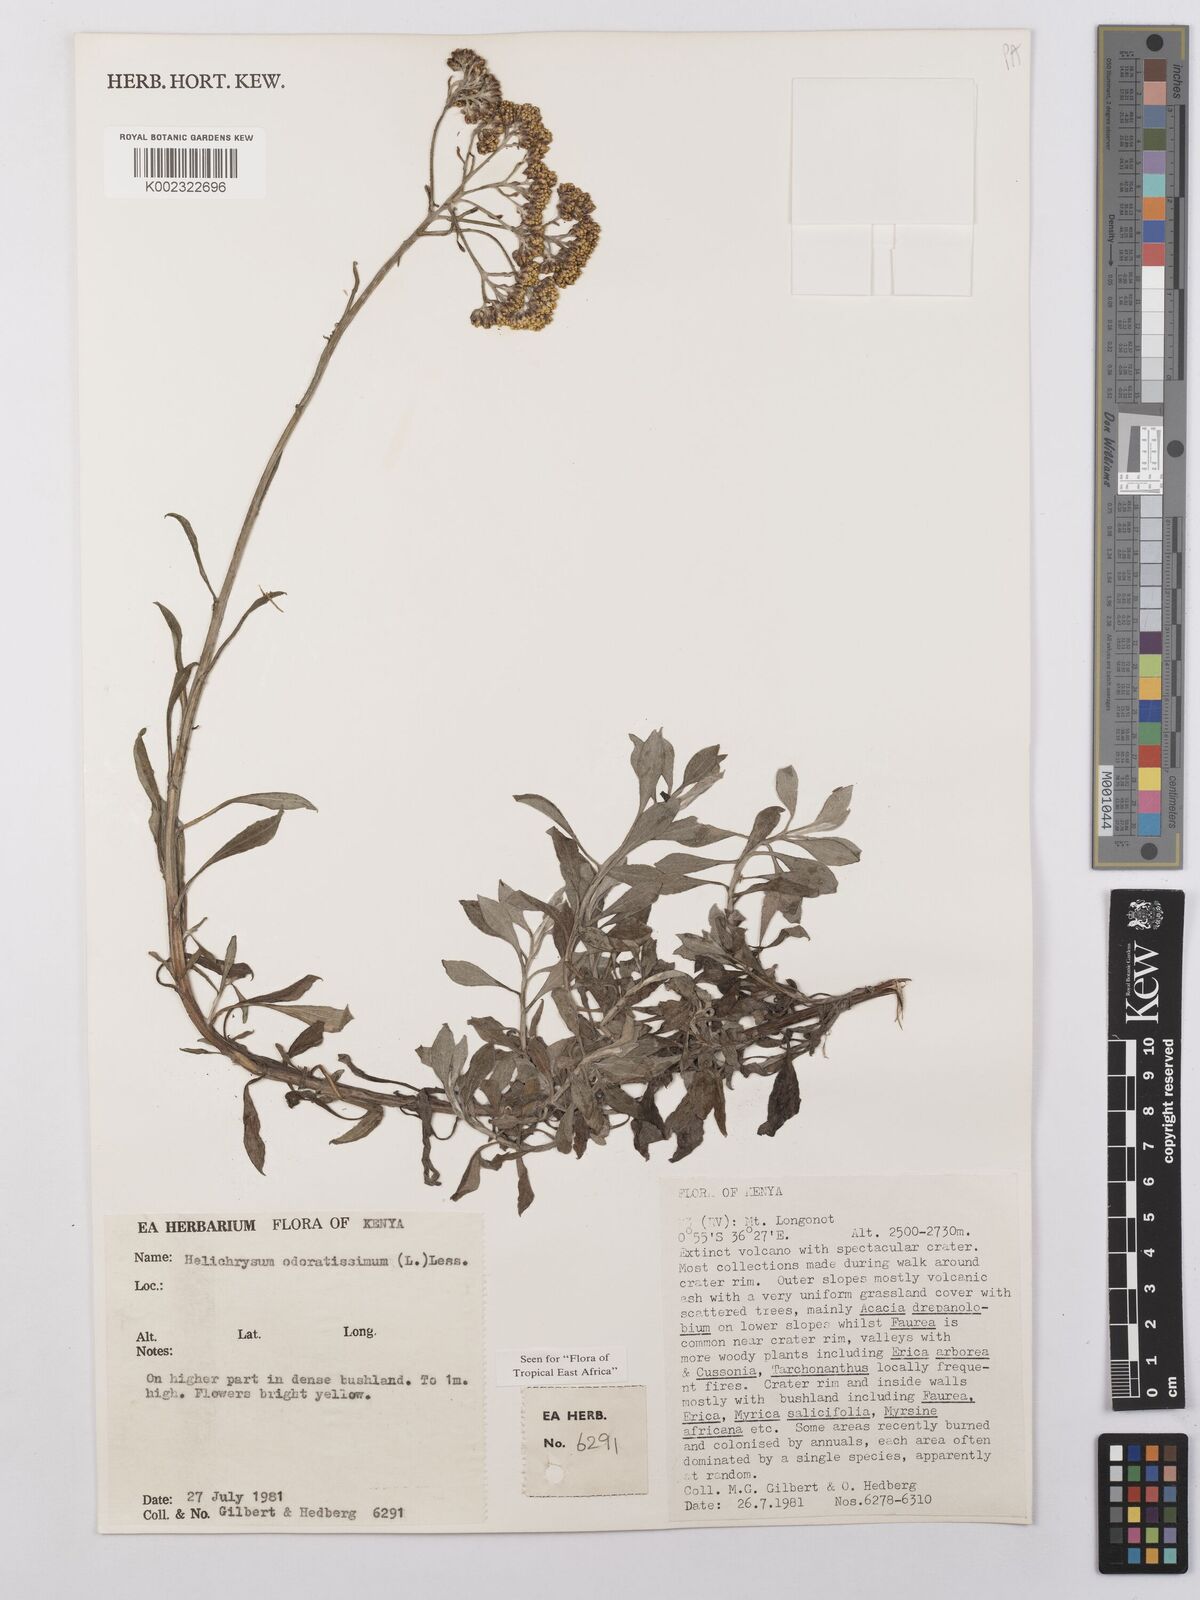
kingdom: Plantae
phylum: Tracheophyta
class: Magnoliopsida
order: Asterales
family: Asteraceae
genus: Helichrysum
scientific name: Helichrysum odoratissimum
